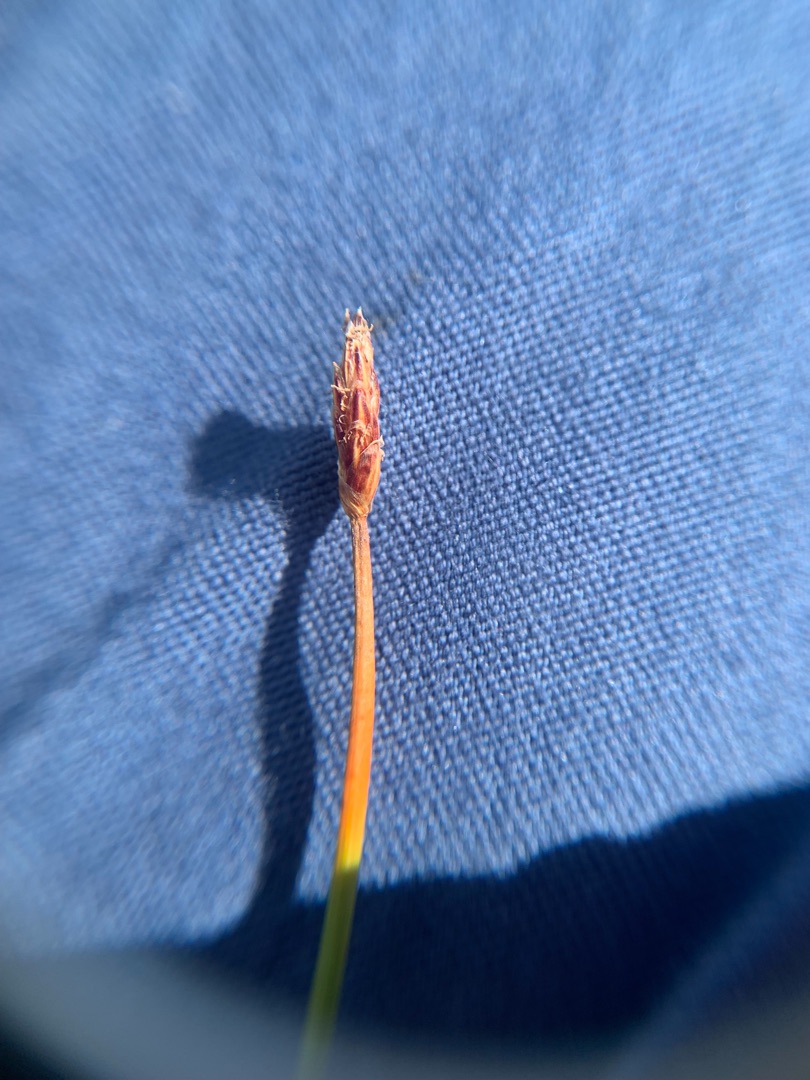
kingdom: Plantae
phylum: Tracheophyta
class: Liliopsida
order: Poales
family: Cyperaceae
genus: Eleocharis
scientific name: Eleocharis uniglumis
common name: Enskællet sumpstrå
